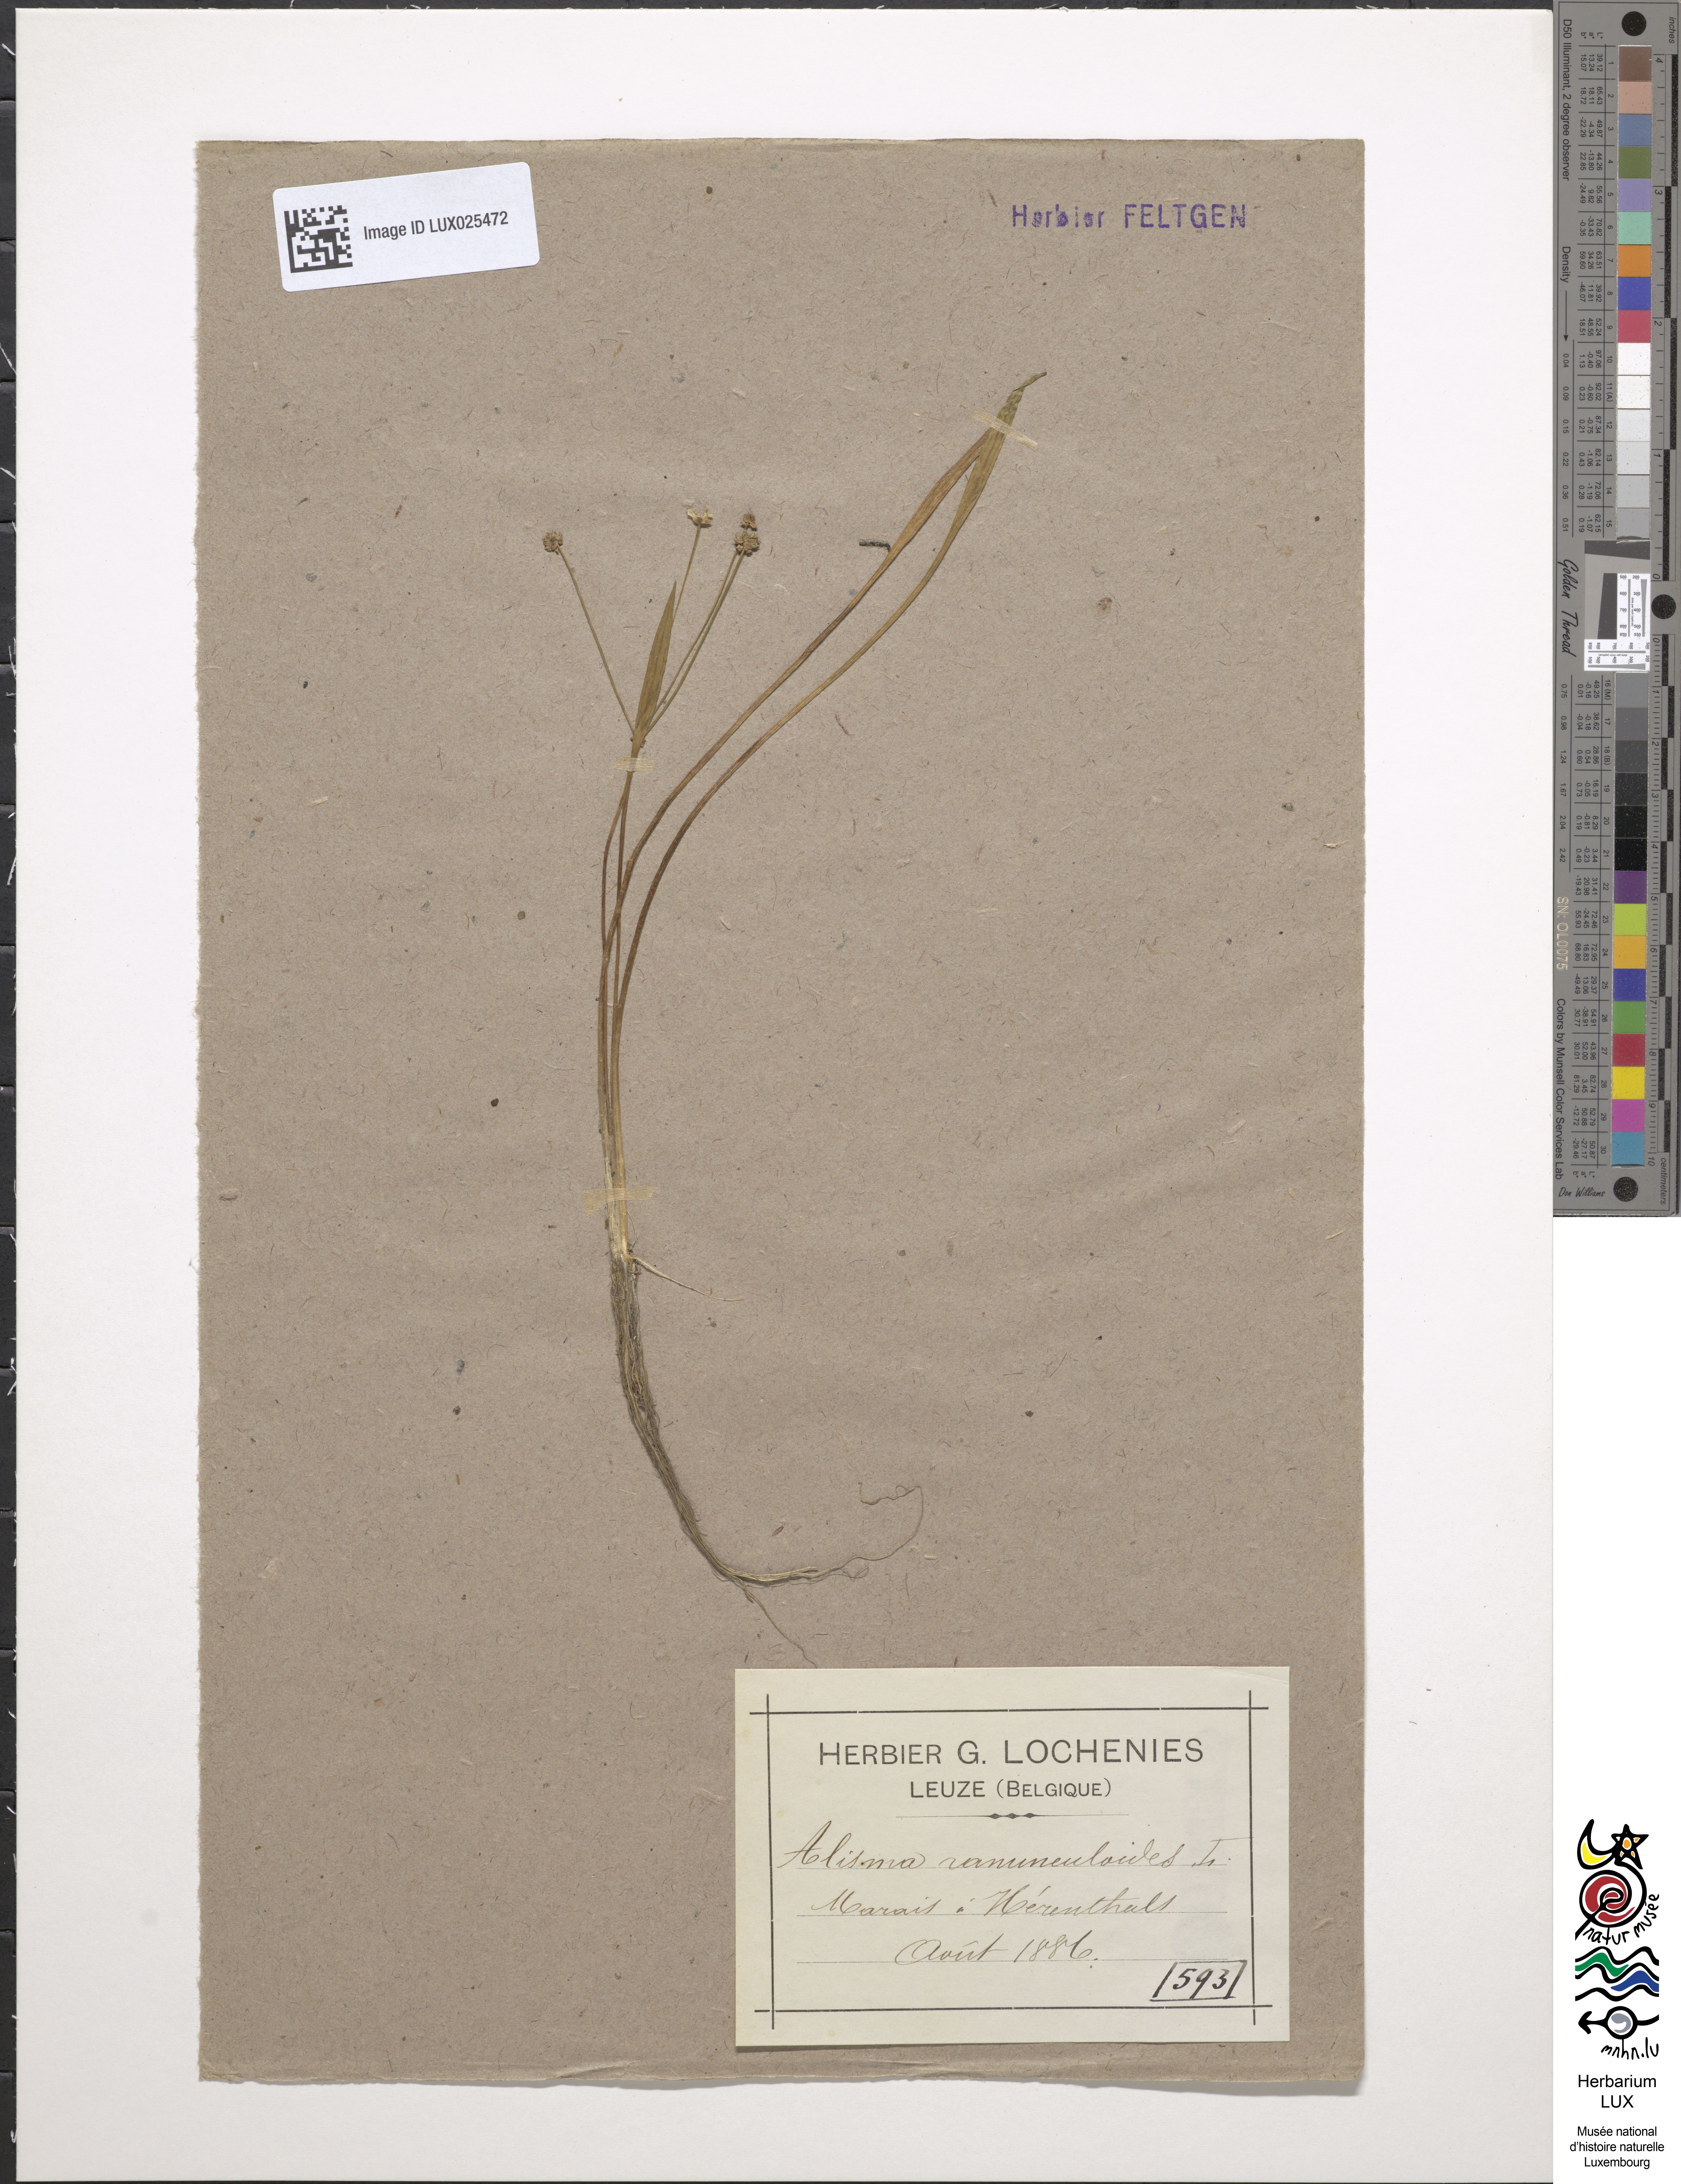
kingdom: Plantae
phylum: Tracheophyta
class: Liliopsida
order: Alismatales
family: Alismataceae
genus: Baldellia
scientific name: Baldellia ranunculoides
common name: Lesser water-plantain
